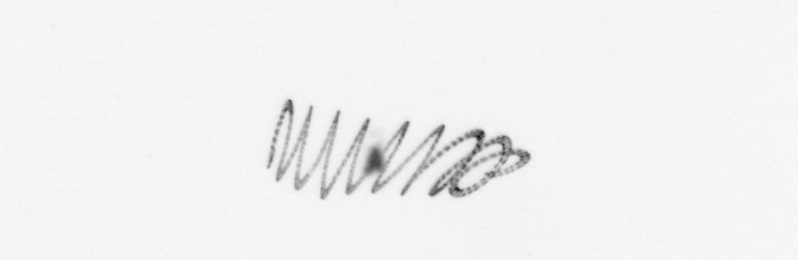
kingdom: Chromista
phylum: Ochrophyta
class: Bacillariophyceae
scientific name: Bacillariophyceae
